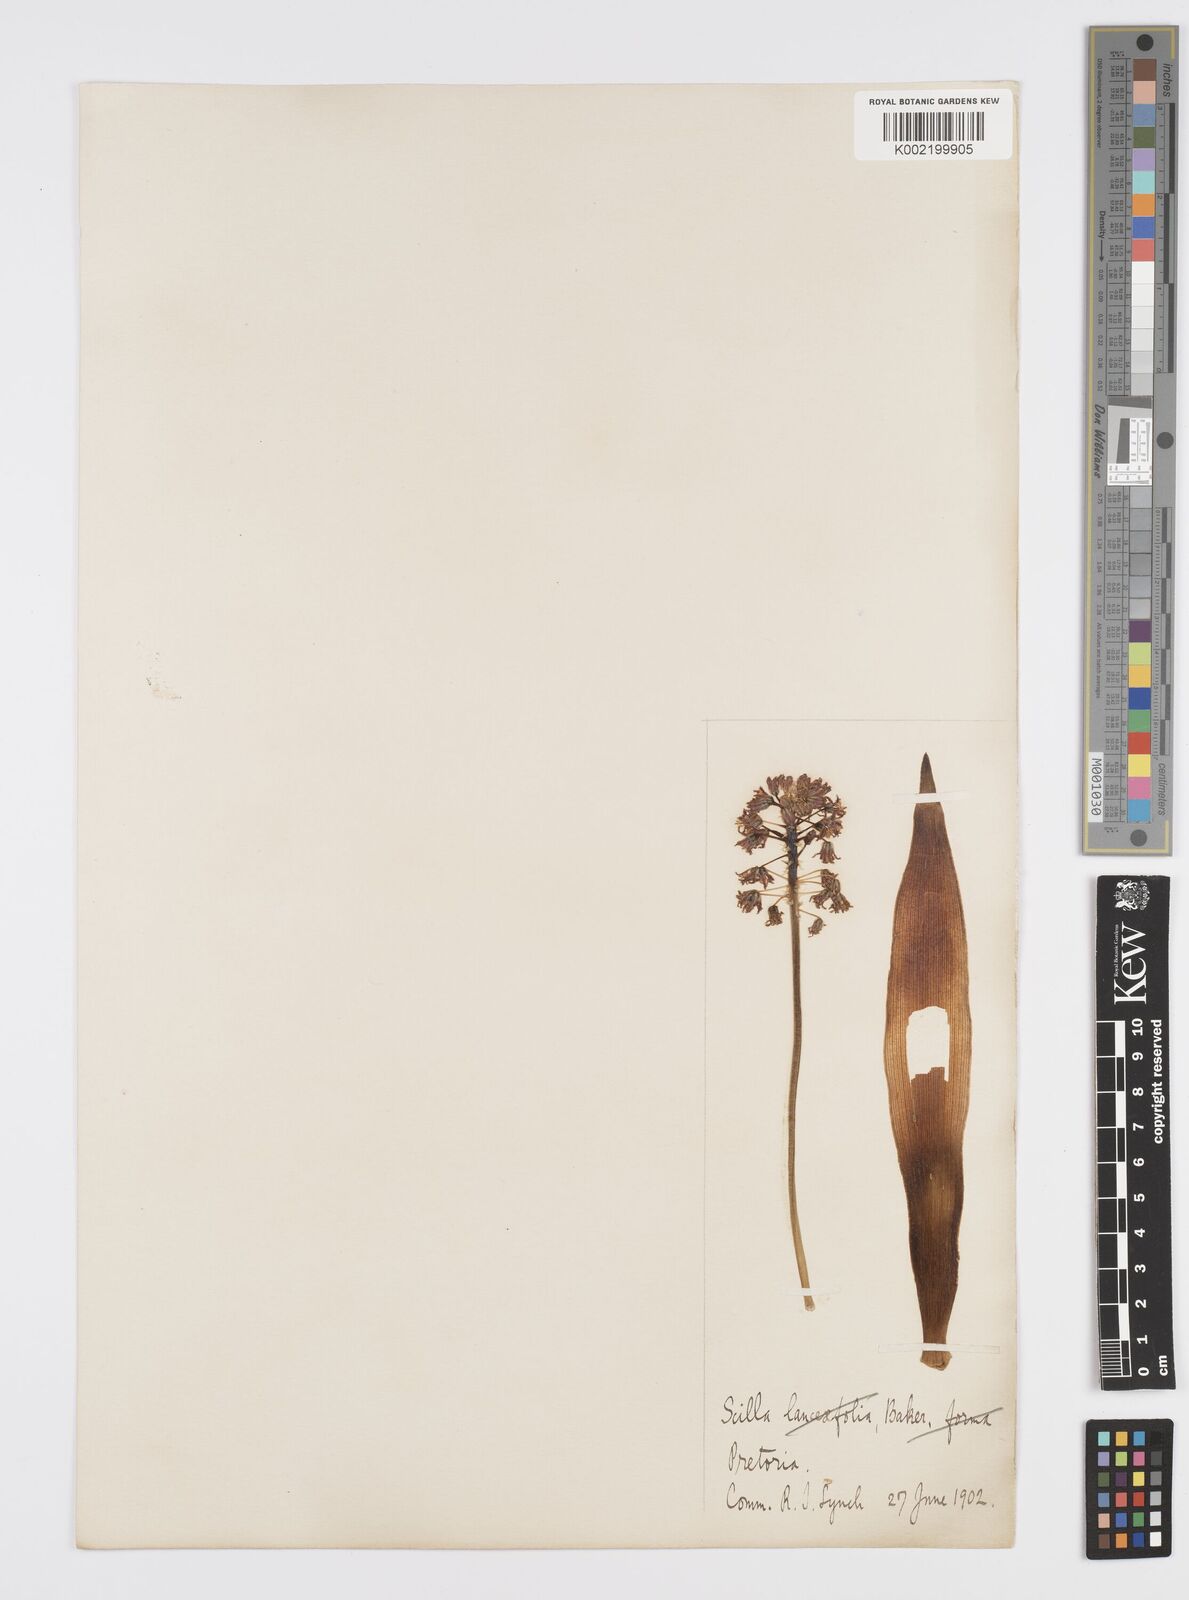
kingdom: Plantae
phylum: Tracheophyta
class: Liliopsida
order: Asparagales
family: Asparagaceae
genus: Ledebouria
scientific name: Ledebouria revoluta
